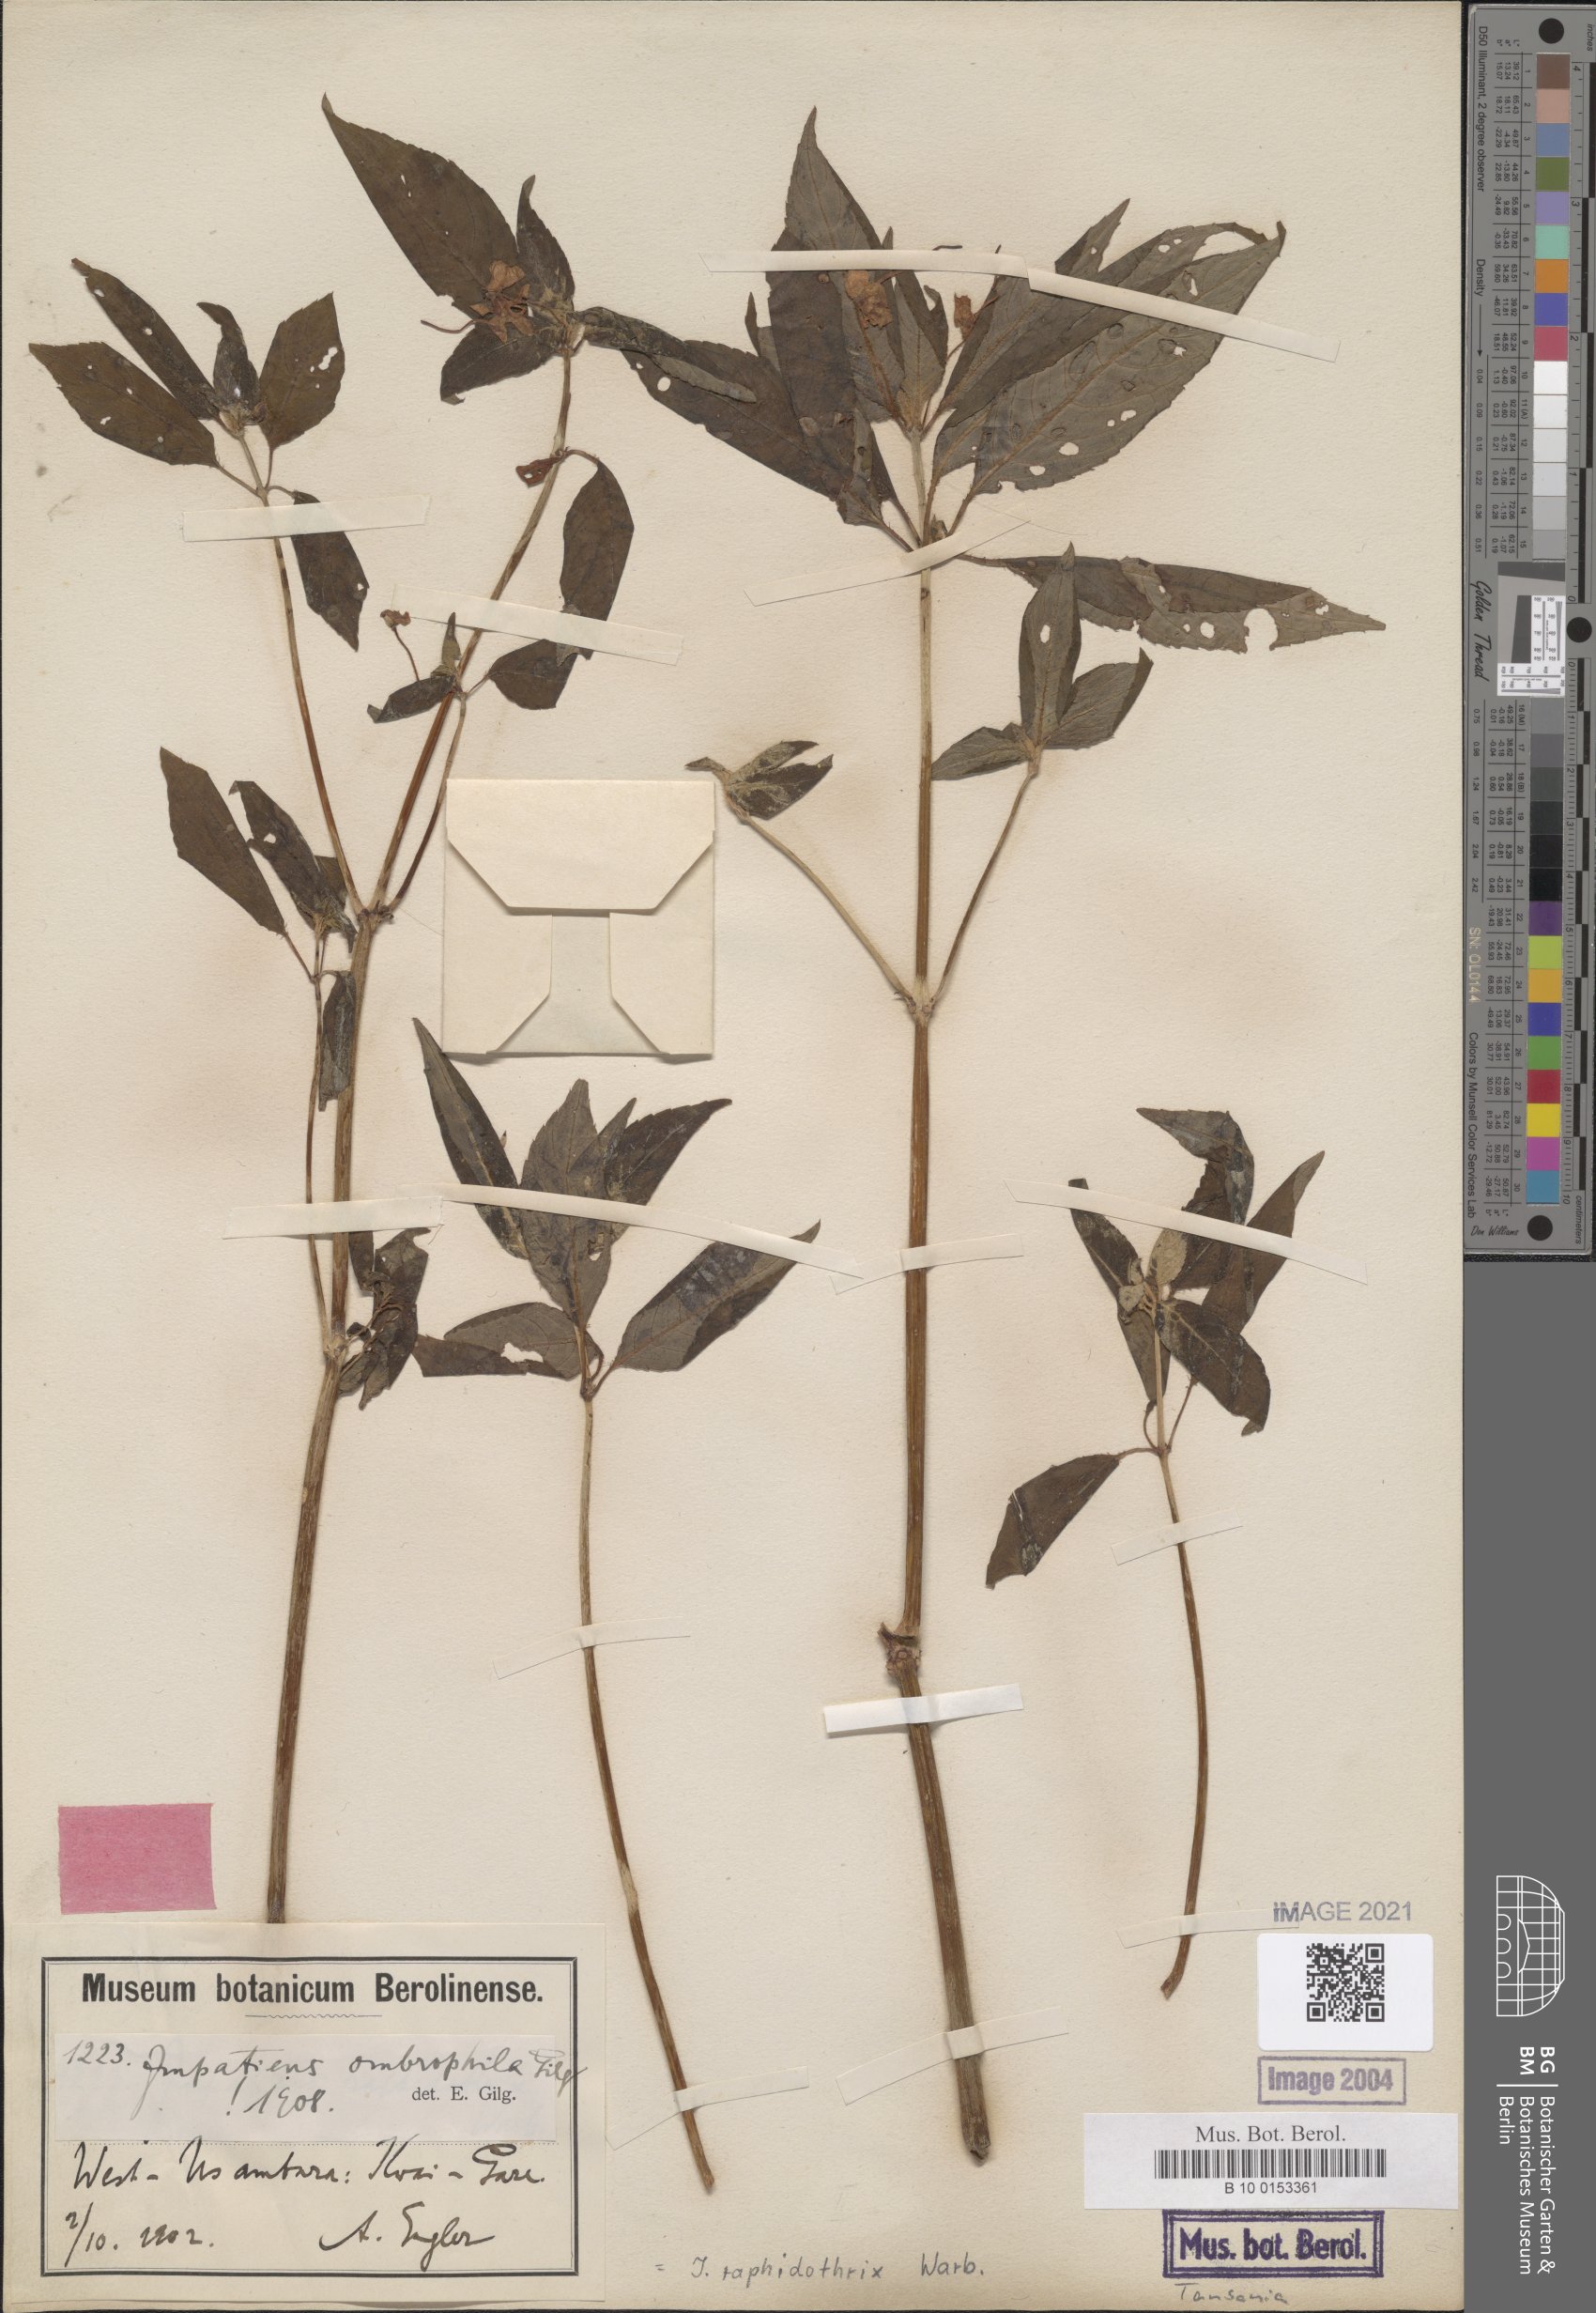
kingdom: Plantae
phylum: Tracheophyta
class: Magnoliopsida
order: Ericales
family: Balsaminaceae
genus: Impatiens
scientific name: Impatiens raphidothrix
